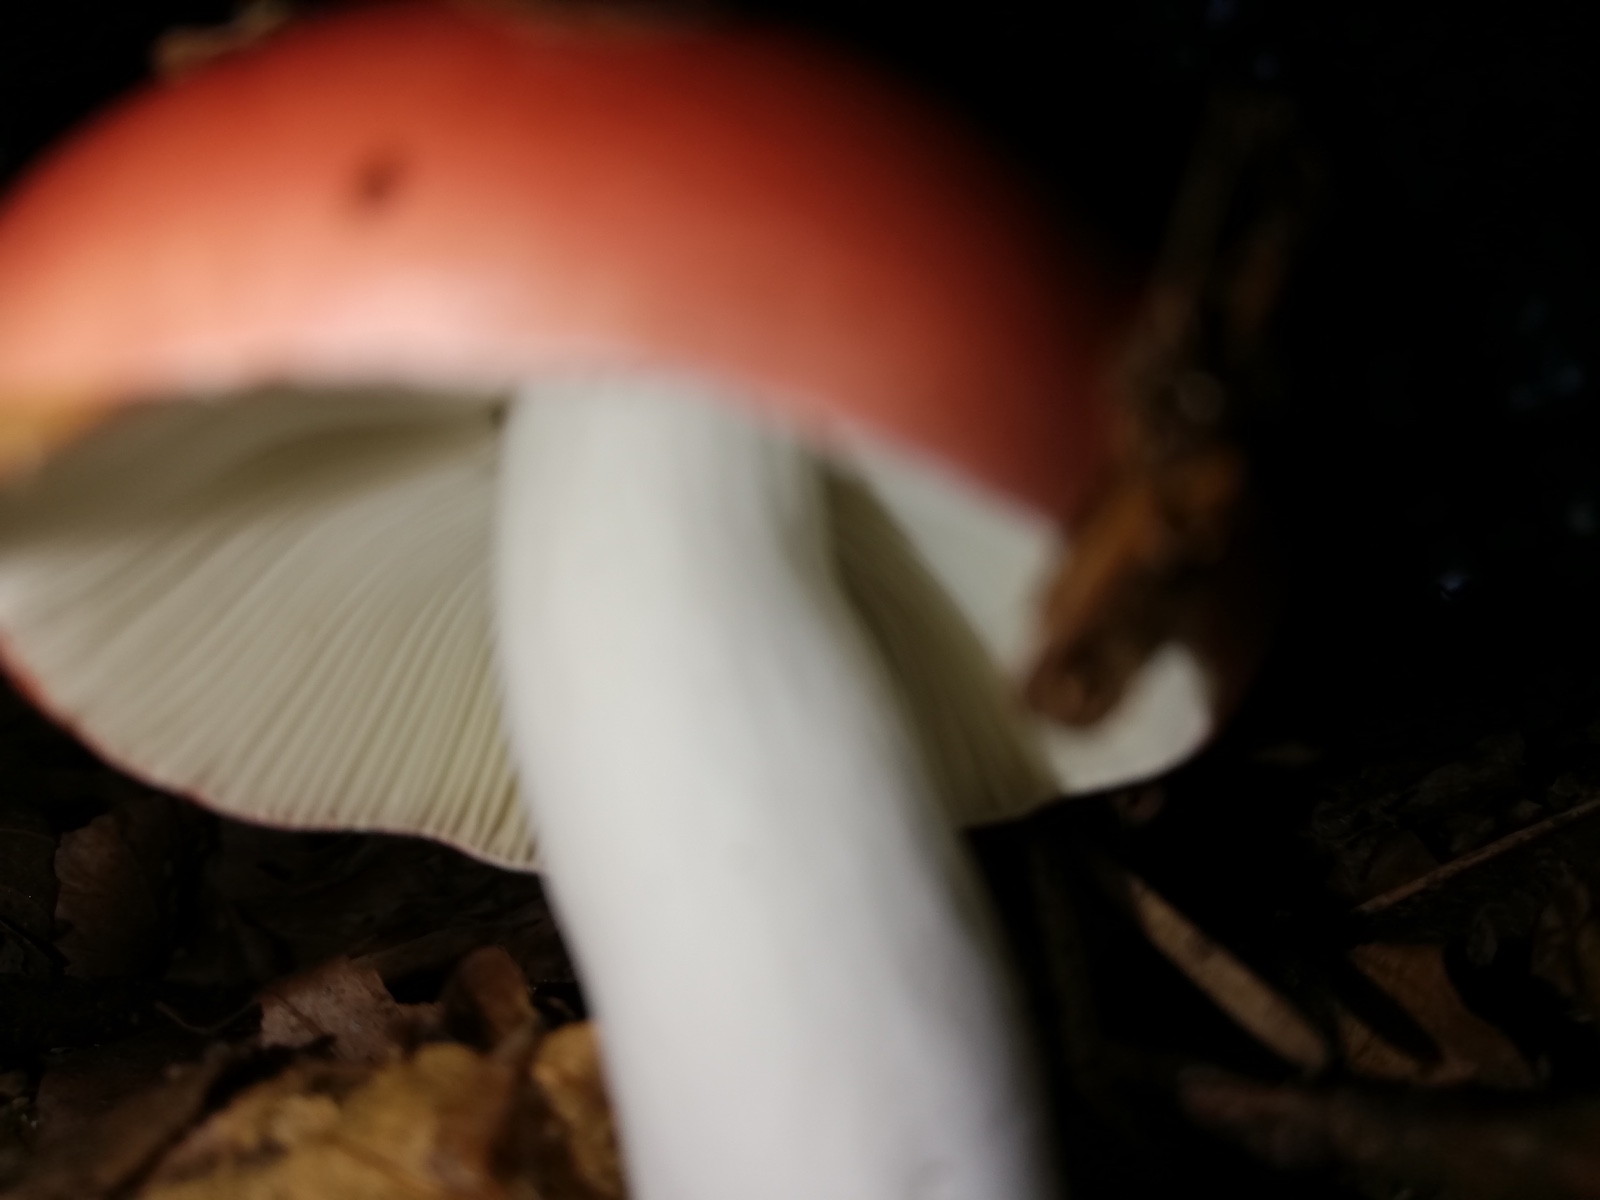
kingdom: Fungi
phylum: Basidiomycota
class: Agaricomycetes
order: Russulales
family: Russulaceae
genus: Russula
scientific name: Russula
